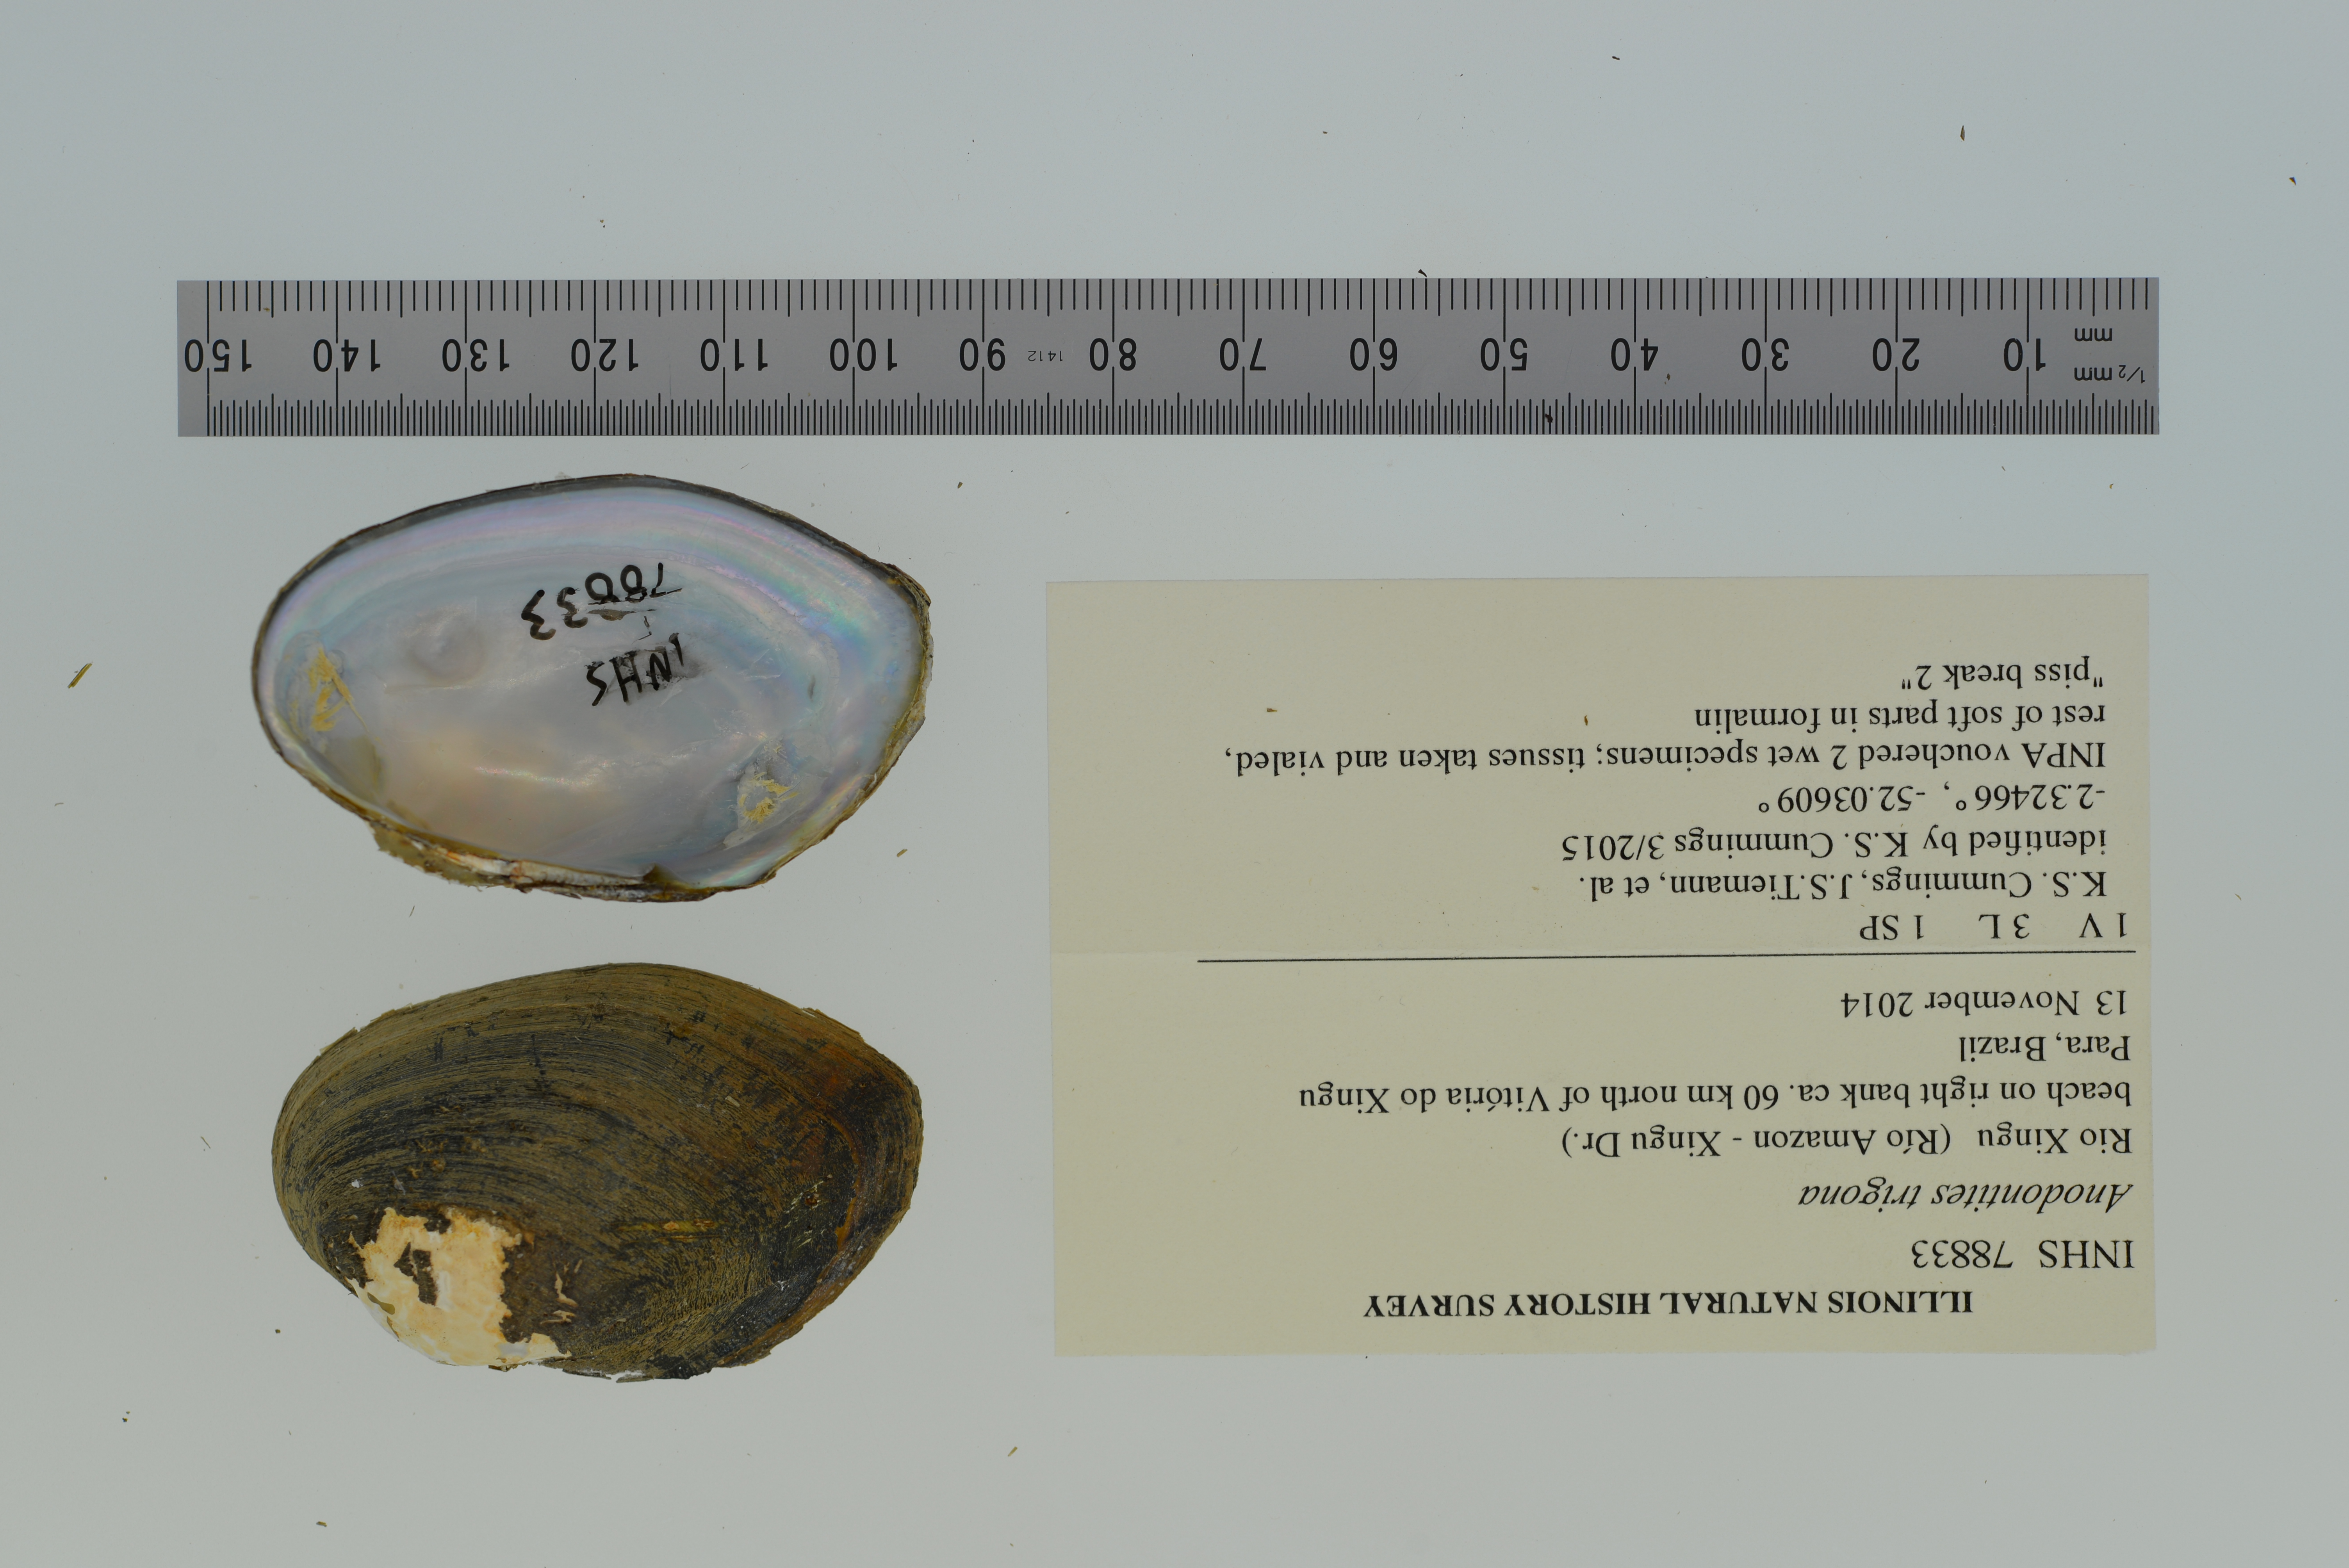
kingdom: Animalia
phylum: Mollusca
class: Bivalvia
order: Unionida
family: Mycetopodidae
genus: Anodontites
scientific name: Anodontites trigona
